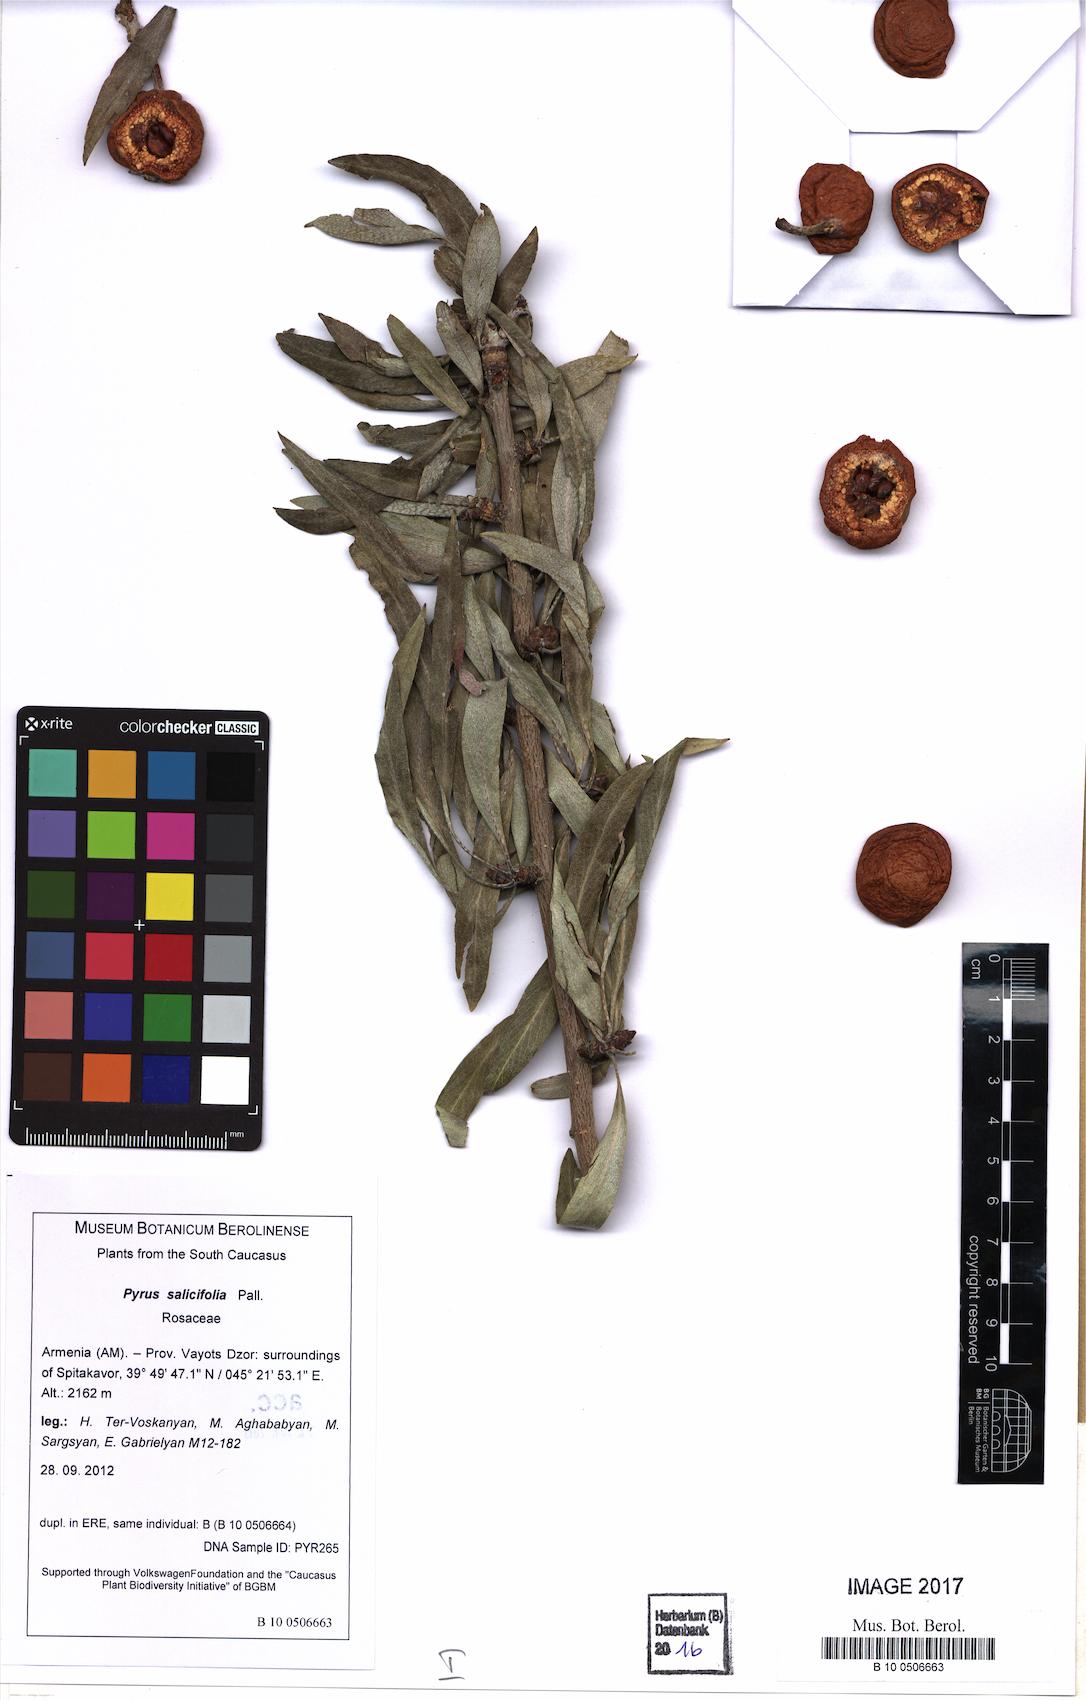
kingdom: Plantae
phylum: Tracheophyta
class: Magnoliopsida
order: Rosales
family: Rosaceae
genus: Pyrus
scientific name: Pyrus salicifolia
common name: Willow-leaved pear
